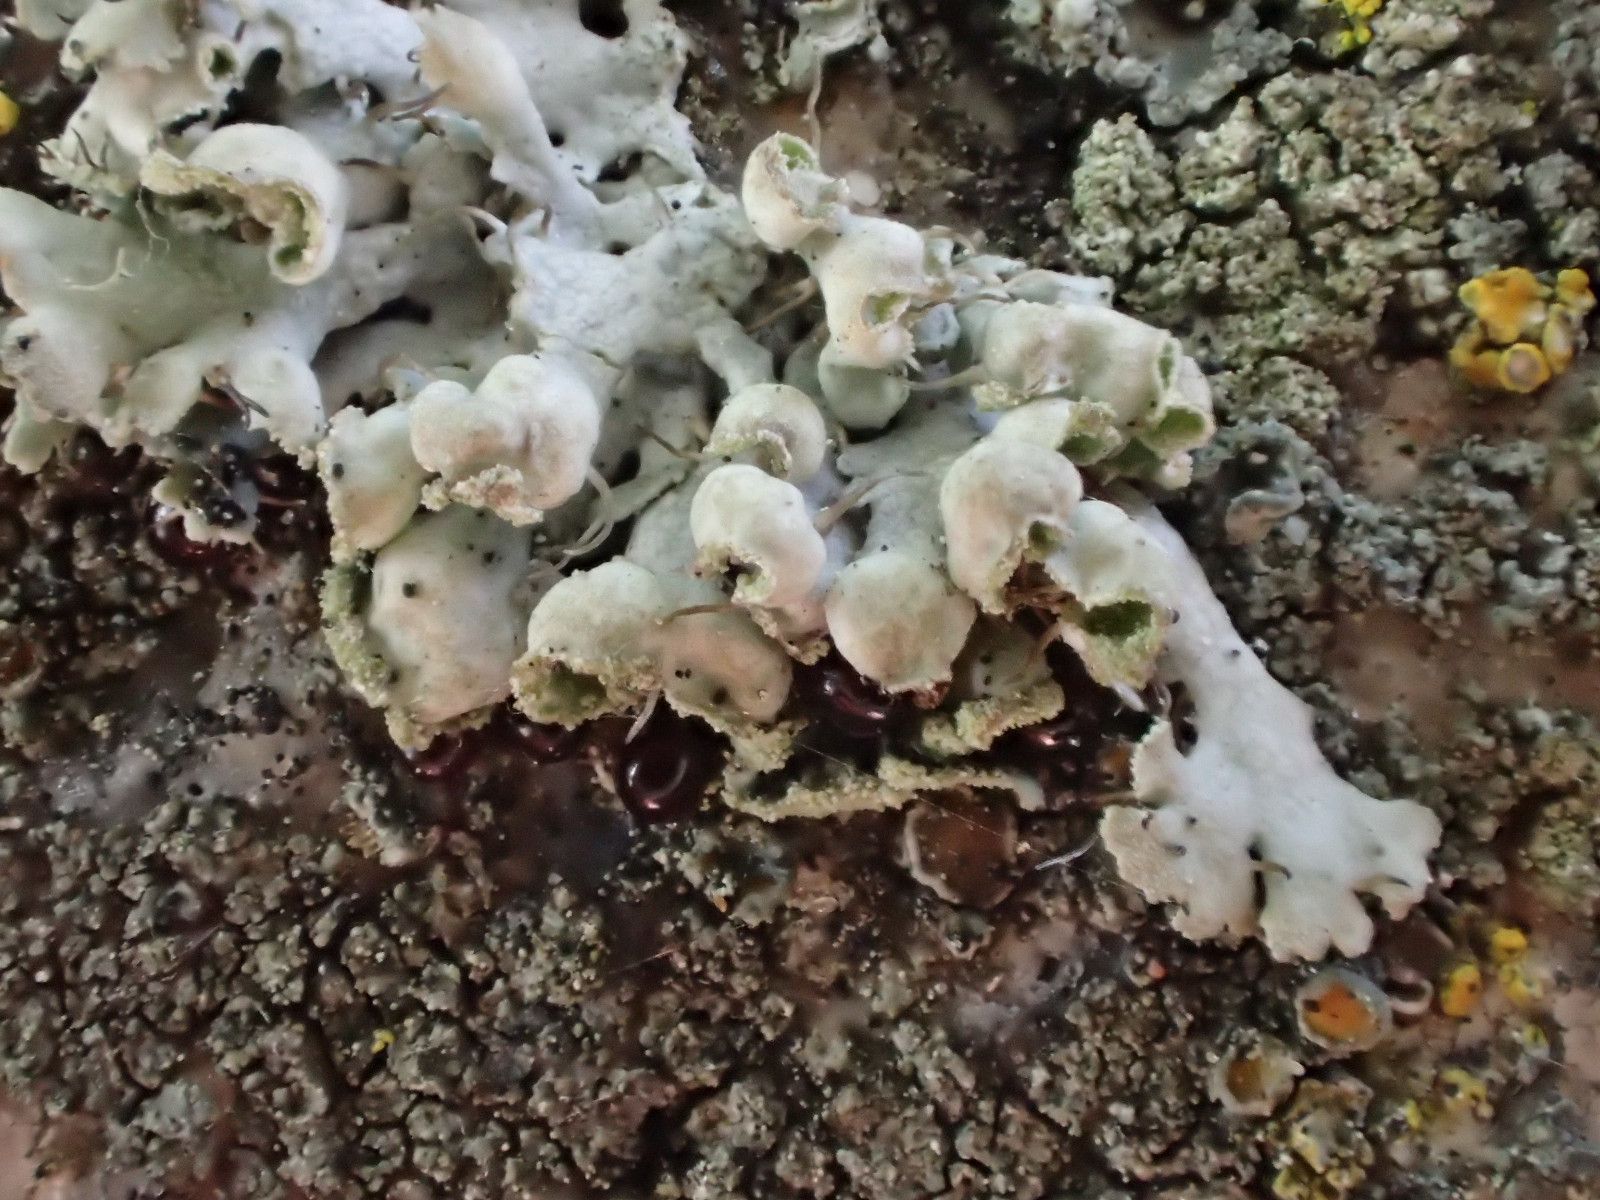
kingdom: Fungi
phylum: Ascomycota
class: Lecanoromycetes
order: Caliciales
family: Physciaceae
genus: Physcia
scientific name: Physcia adscendens
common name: hætte-rosetlav
